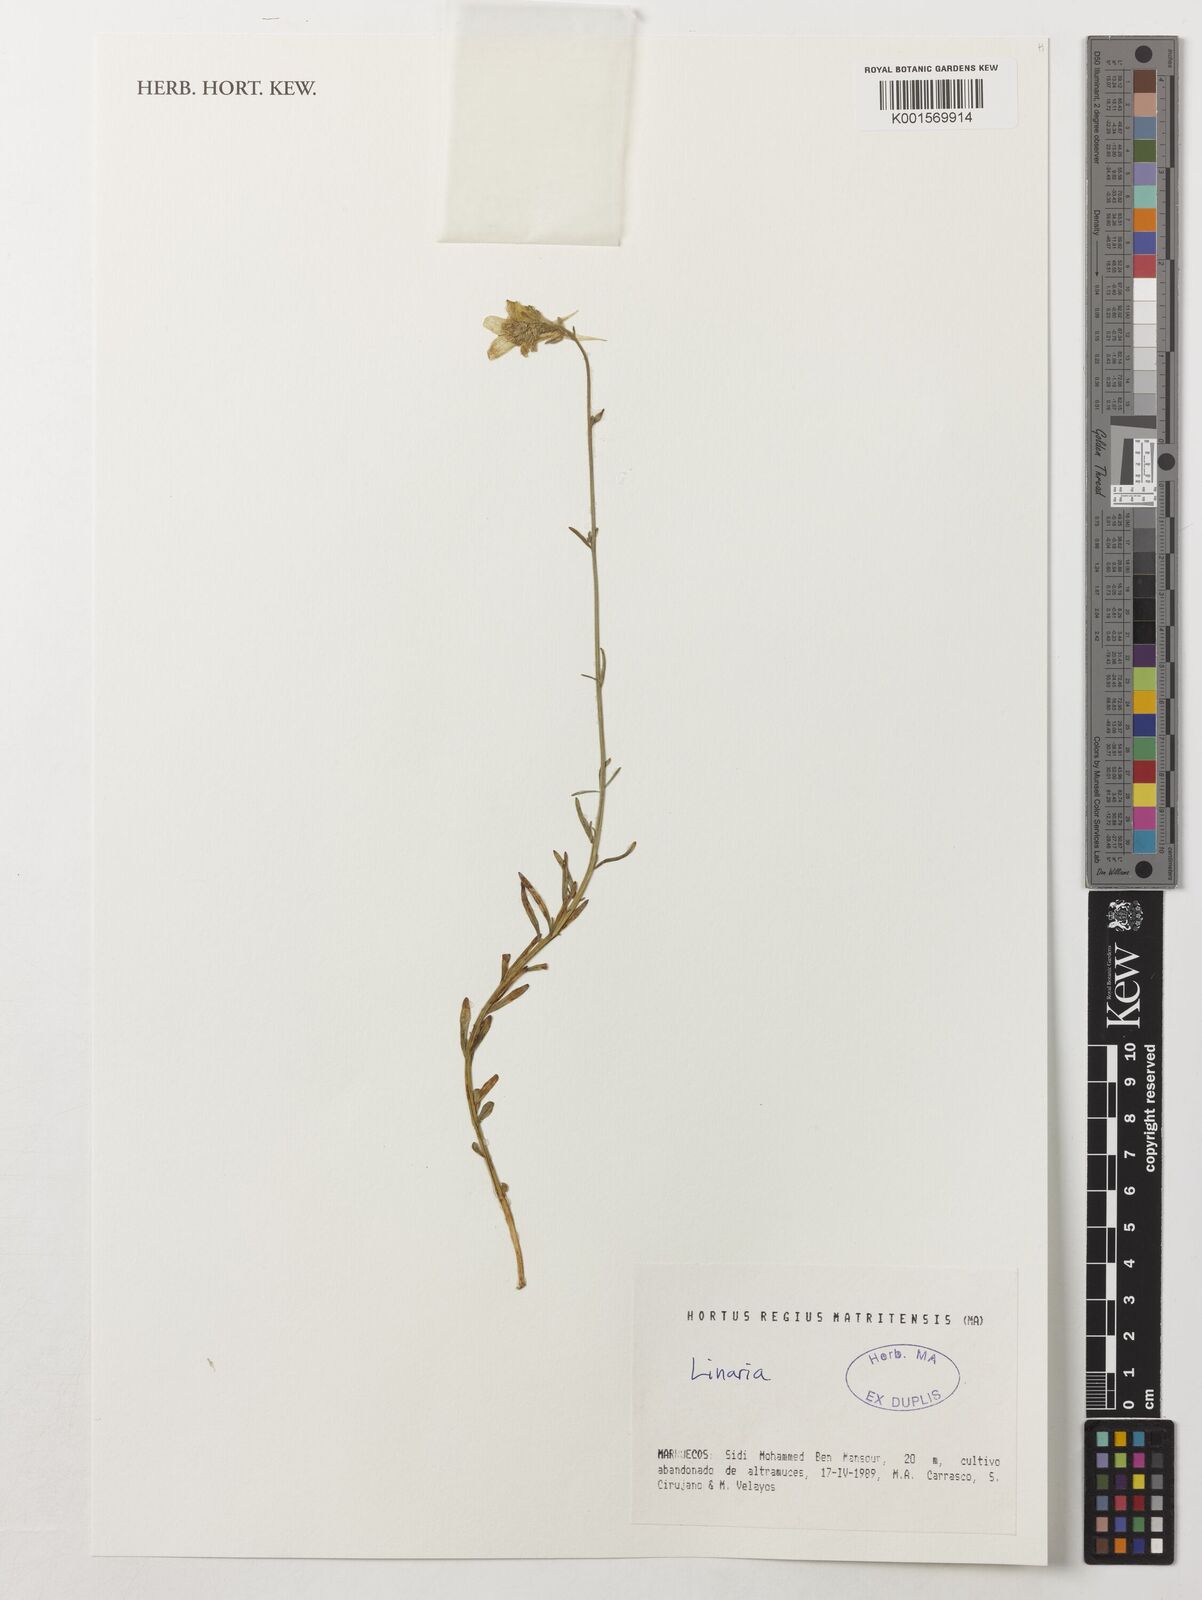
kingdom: Plantae
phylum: Tracheophyta
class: Magnoliopsida
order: Lamiales
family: Plantaginaceae
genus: Linaria
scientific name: Linaria
